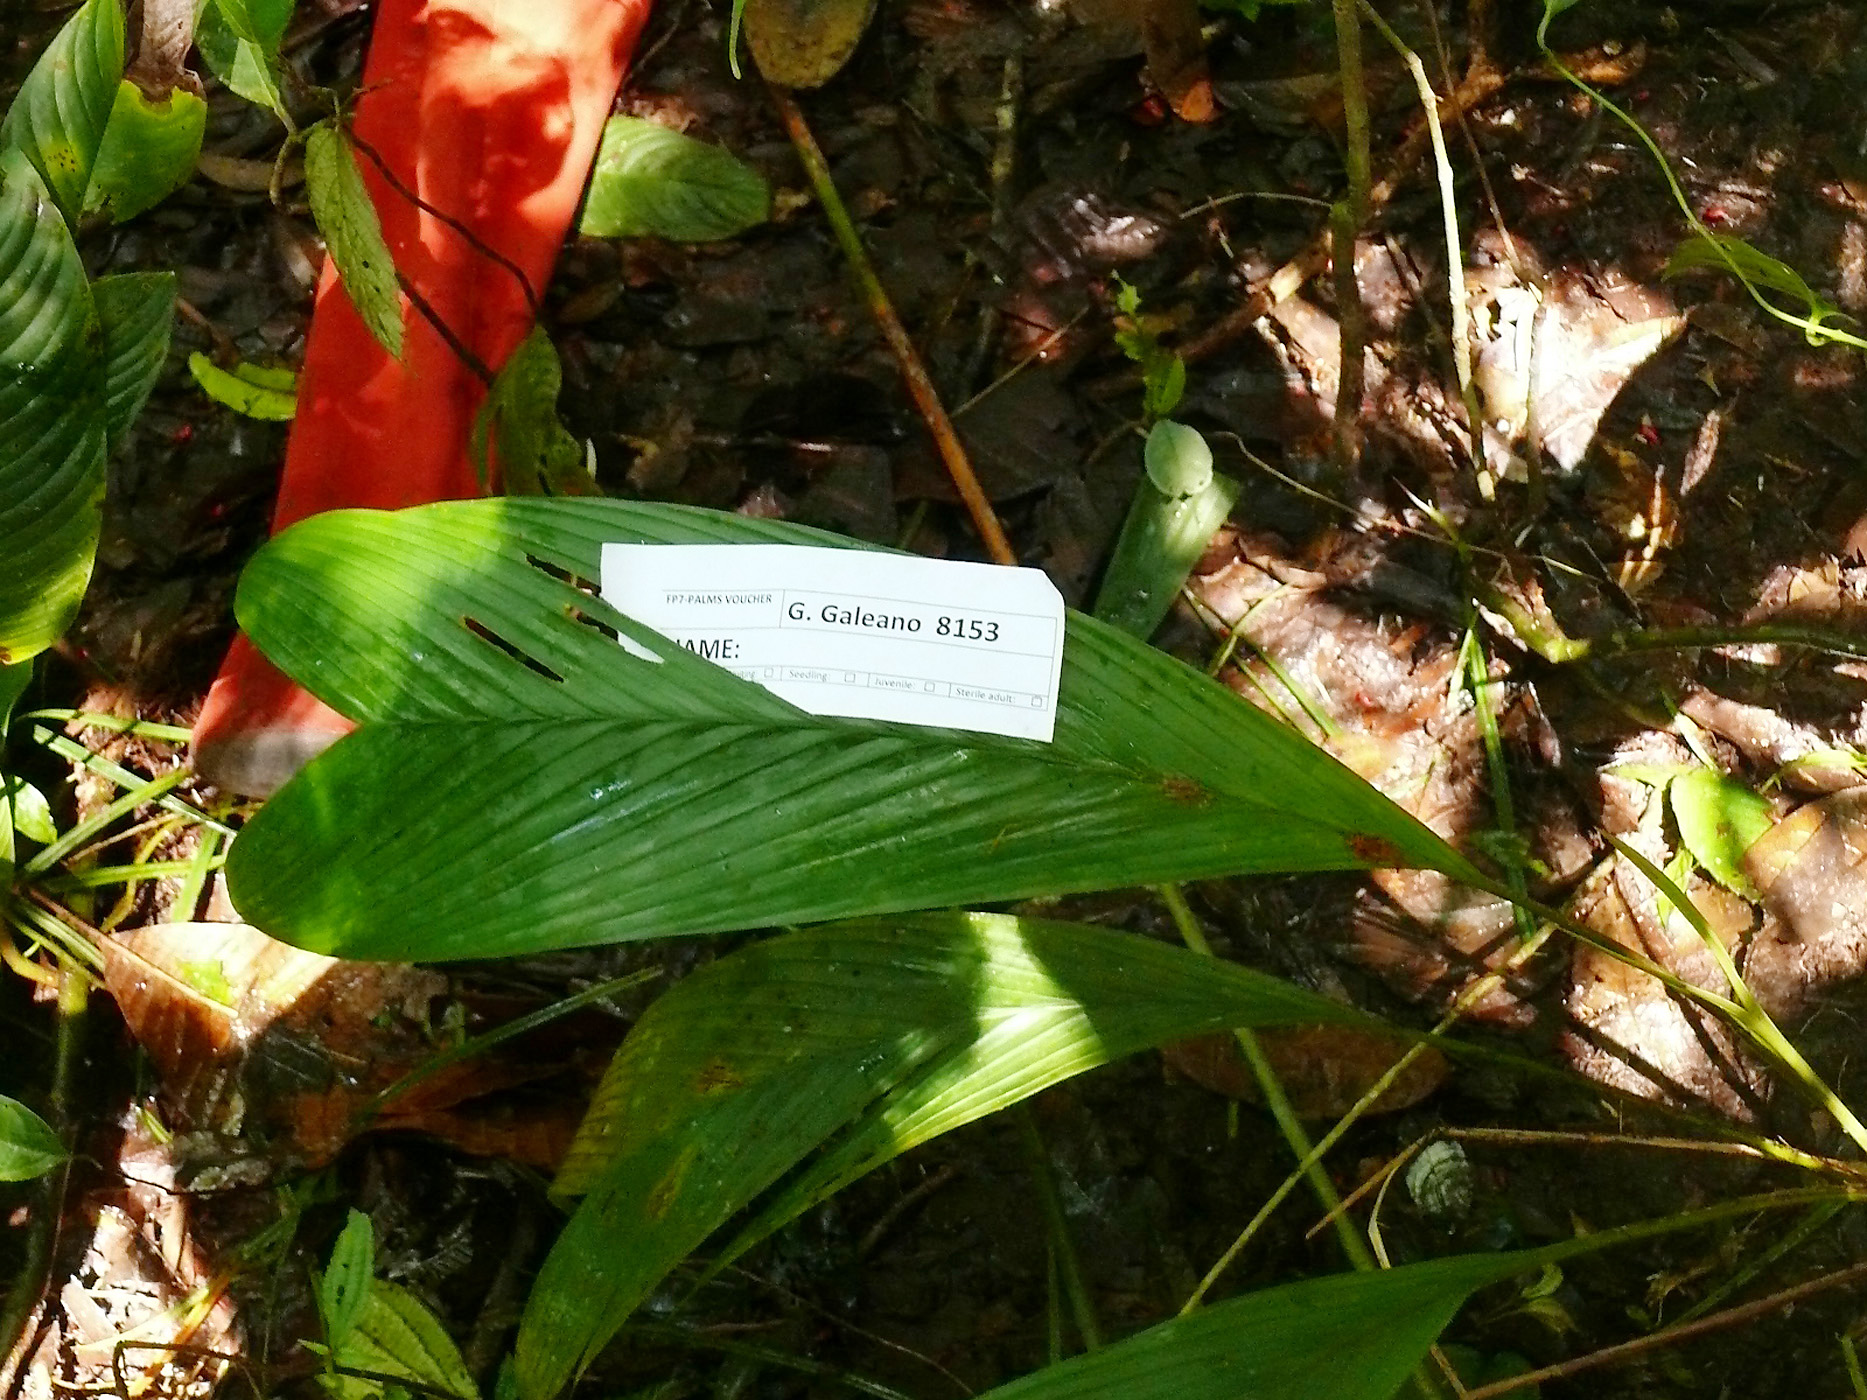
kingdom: Plantae
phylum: Tracheophyta
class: Liliopsida
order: Arecales
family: Arecaceae
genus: Geonoma
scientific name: Geonoma cuneata
